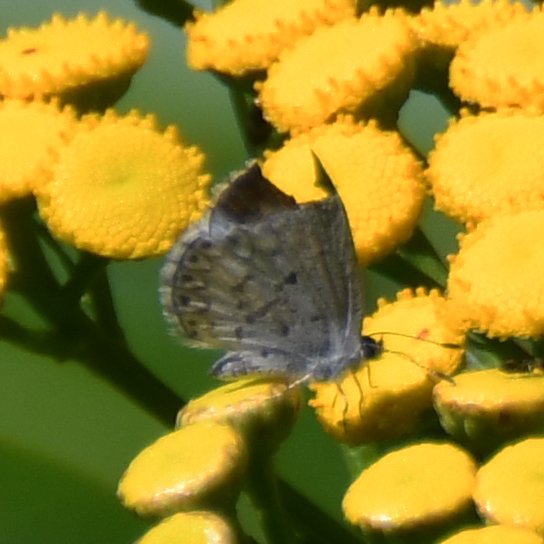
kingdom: Animalia
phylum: Arthropoda
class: Insecta
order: Lepidoptera
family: Lycaenidae
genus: Celastrina
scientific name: Celastrina lucia
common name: Northern Spring Azure
